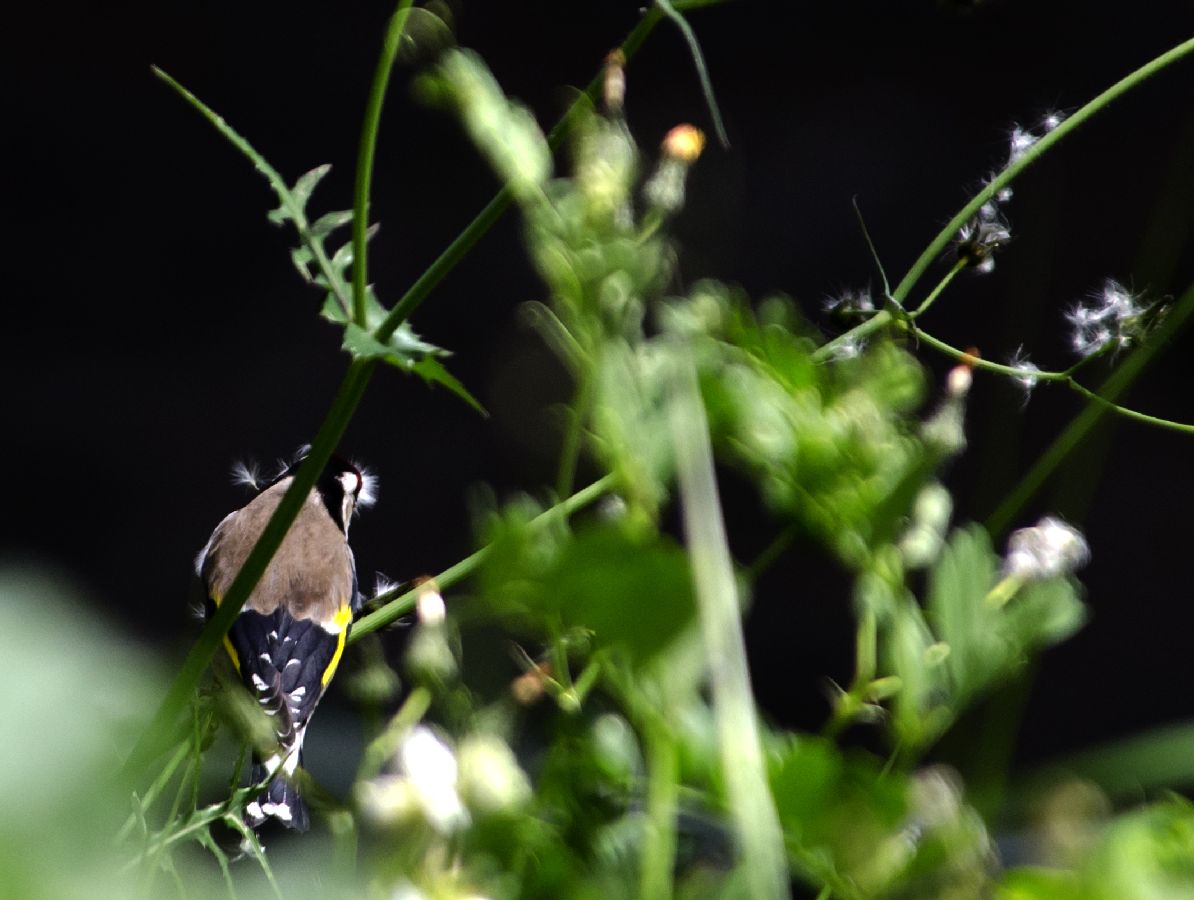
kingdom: Animalia
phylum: Chordata
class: Aves
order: Passeriformes
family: Fringillidae
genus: Carduelis
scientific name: Carduelis carduelis
